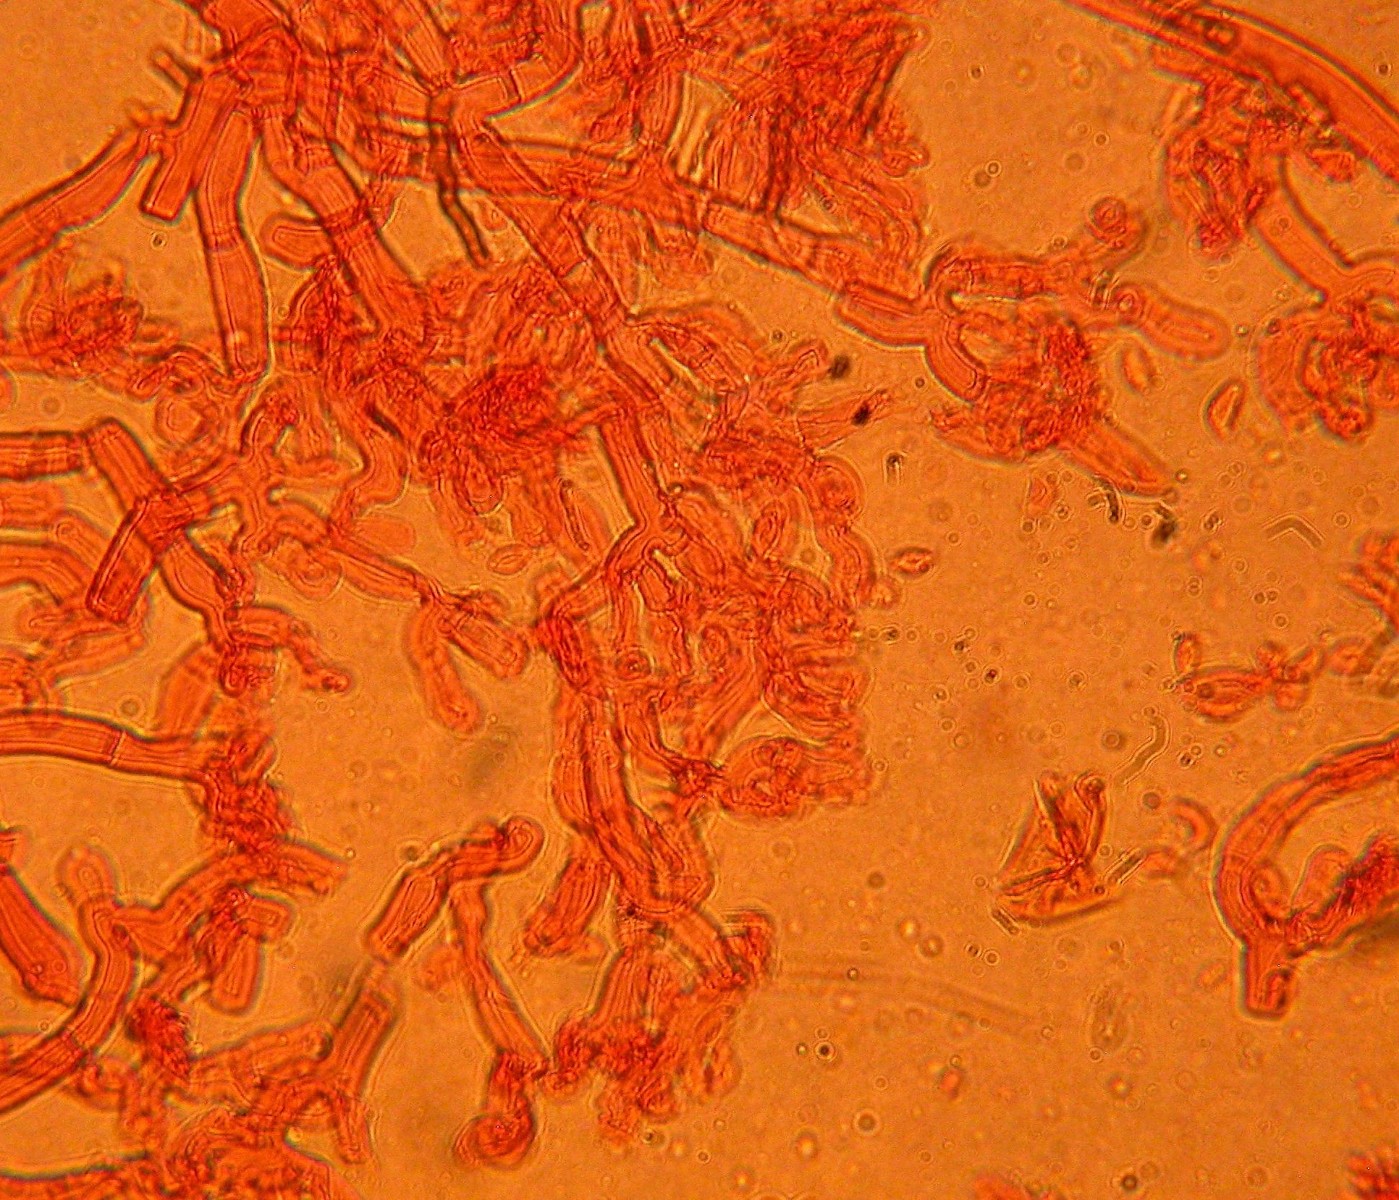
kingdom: Fungi
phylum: Basidiomycota
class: Agaricomycetes
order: Cantharellales
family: Botryobasidiaceae
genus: Botryobasidium
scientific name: Botryobasidium laeve
